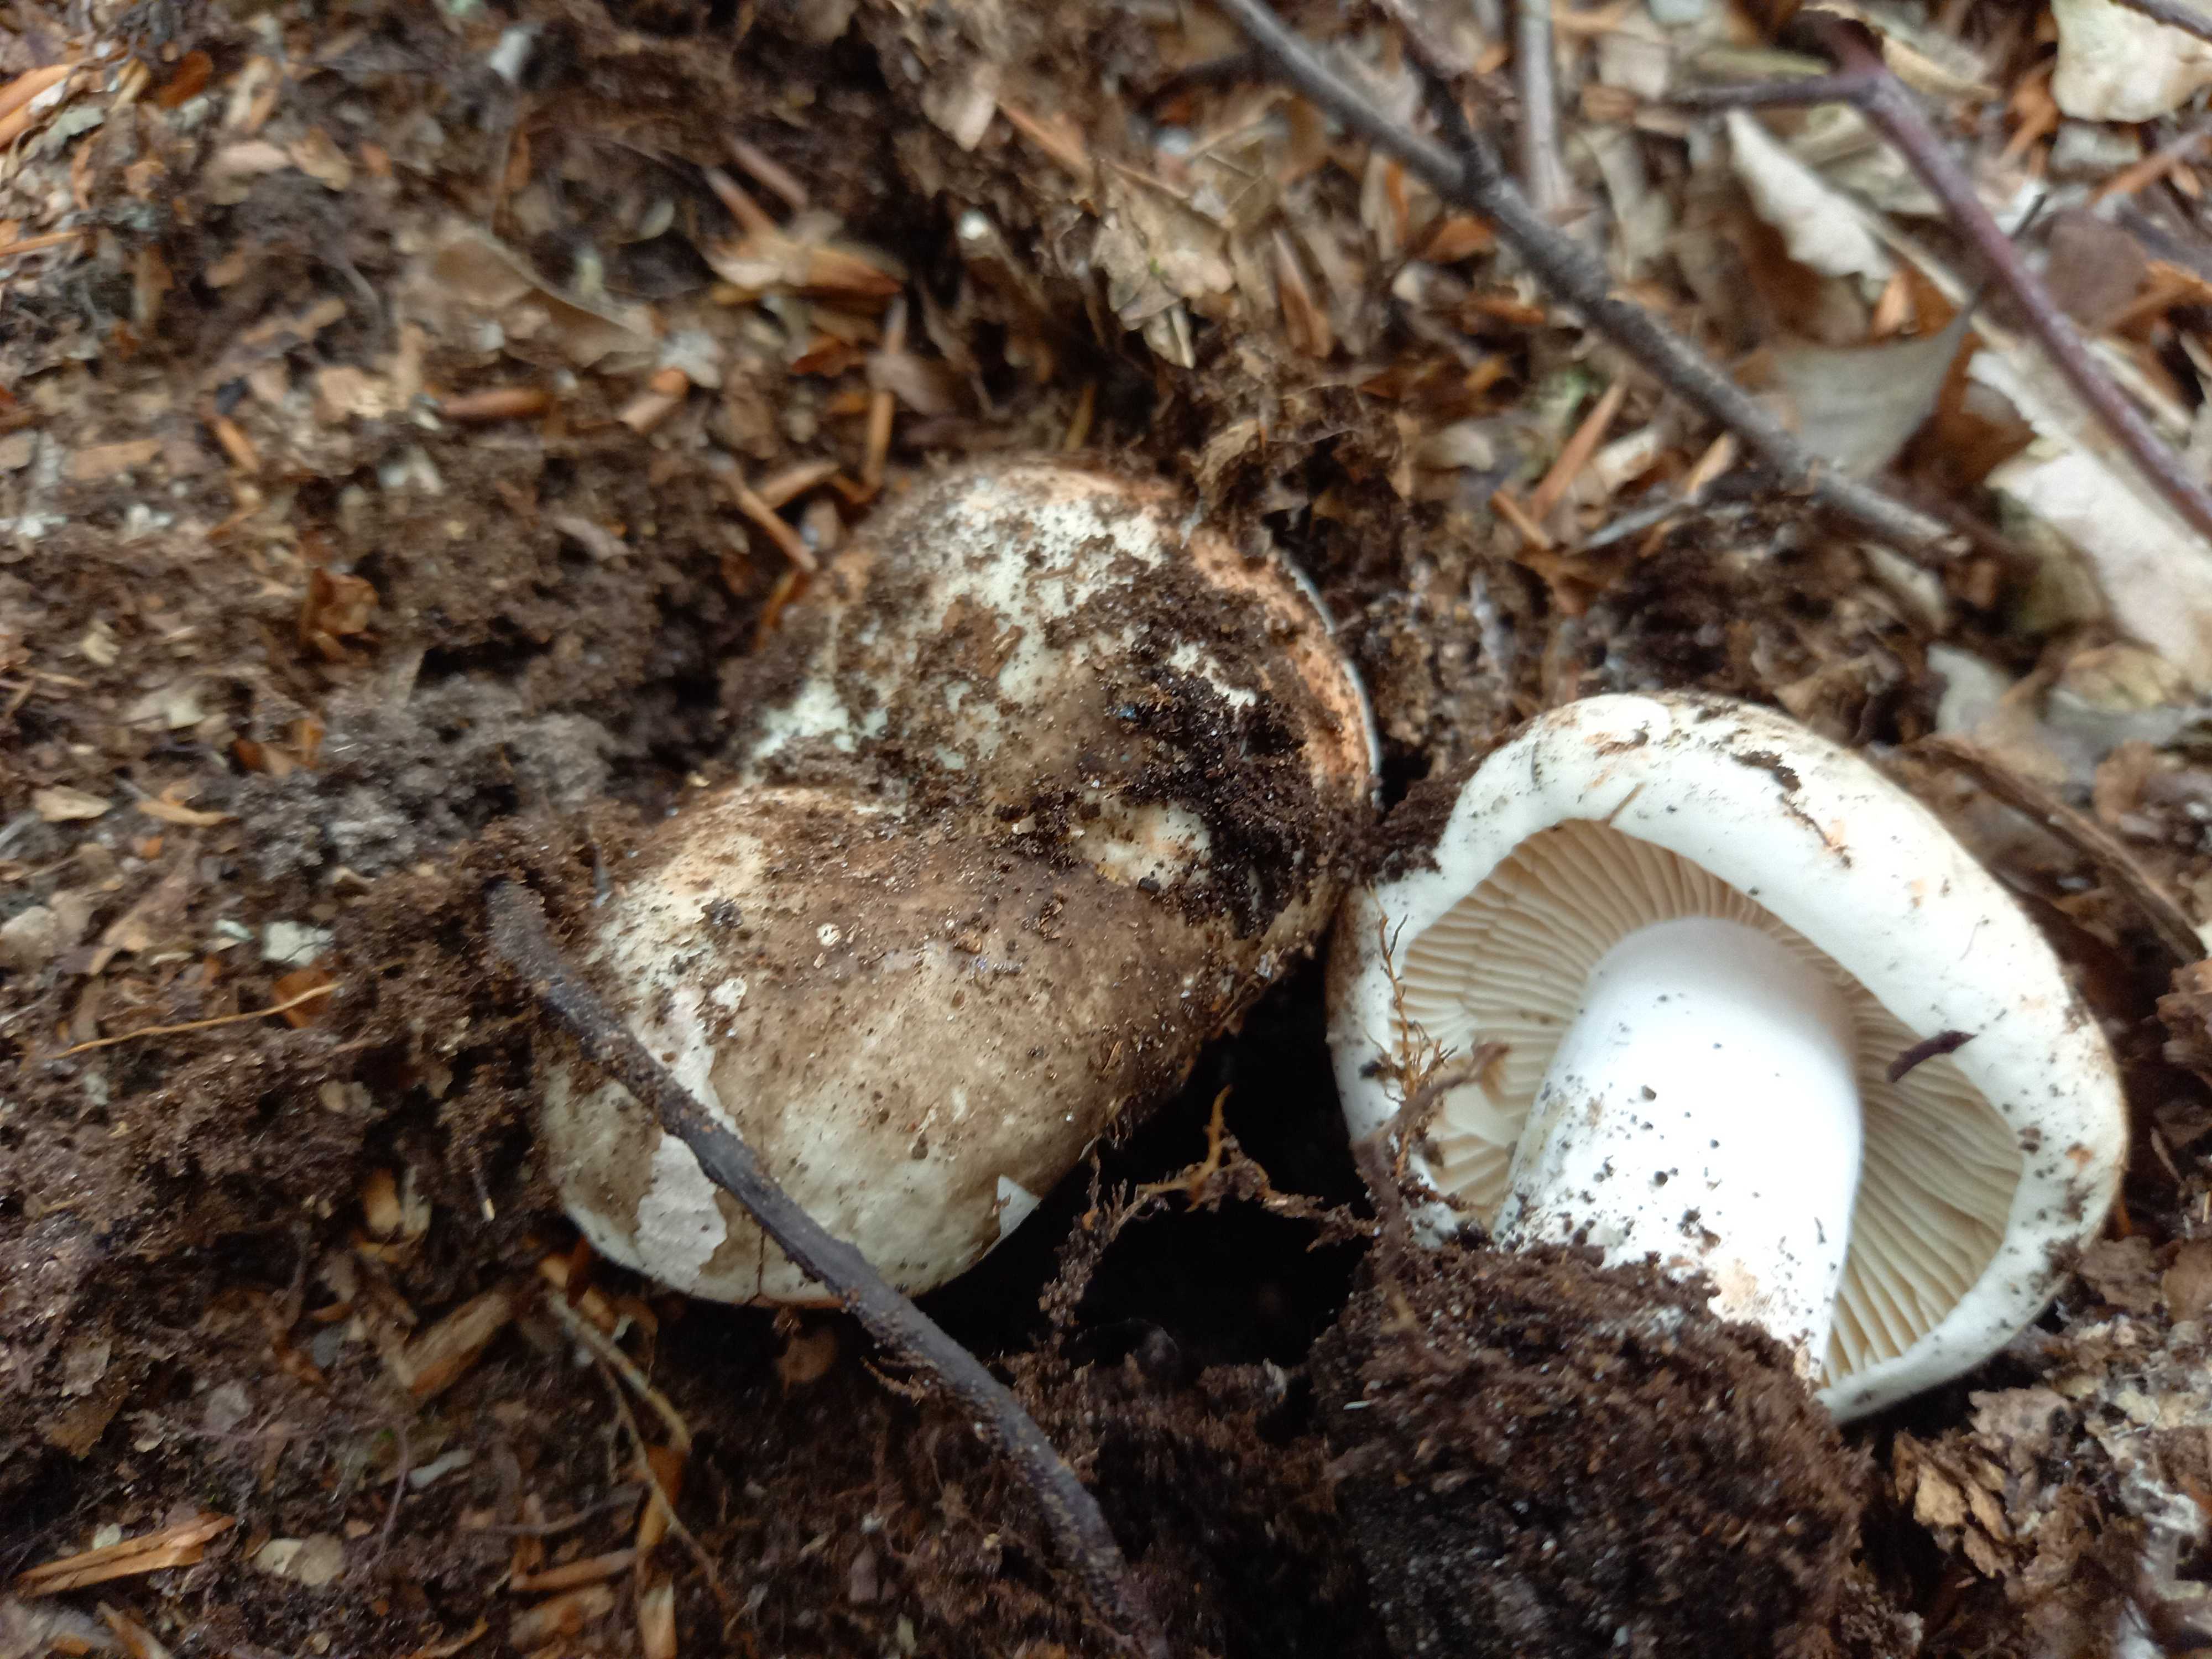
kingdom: Fungi
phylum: Basidiomycota
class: Agaricomycetes
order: Russulales
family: Russulaceae
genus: Russula
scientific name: Russula adusta
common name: sværtende skørhat
